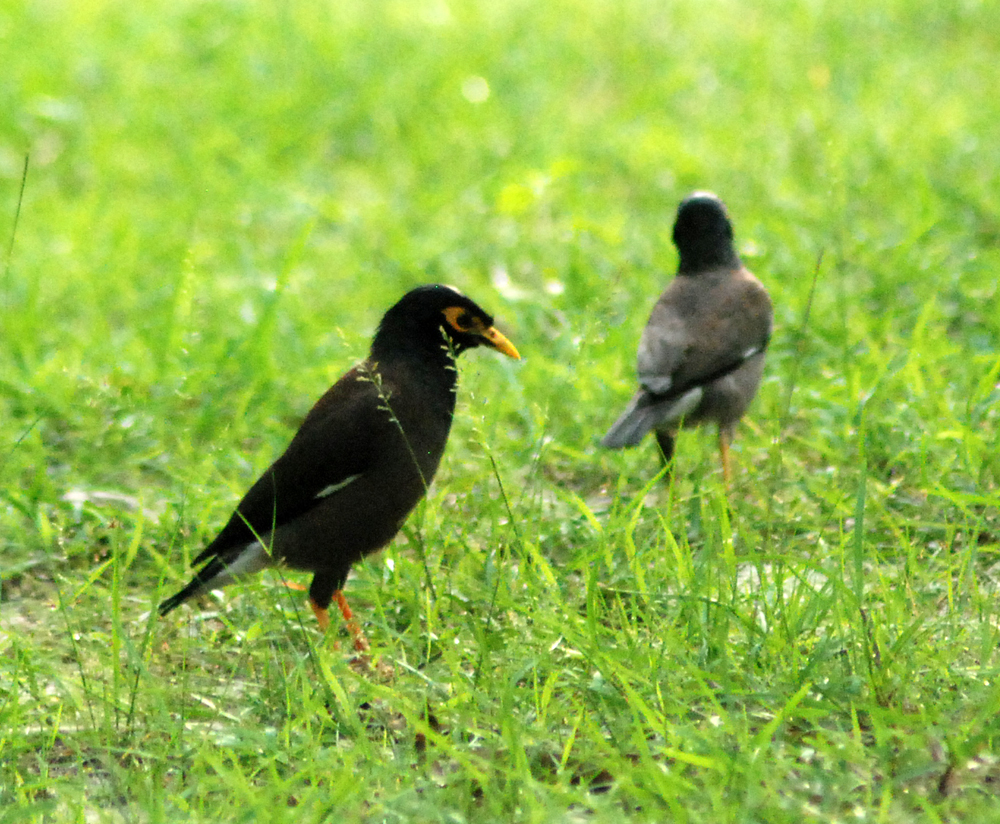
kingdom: Animalia
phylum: Chordata
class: Aves
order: Passeriformes
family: Sturnidae
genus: Acridotheres
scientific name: Acridotheres tristis
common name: Common myna
